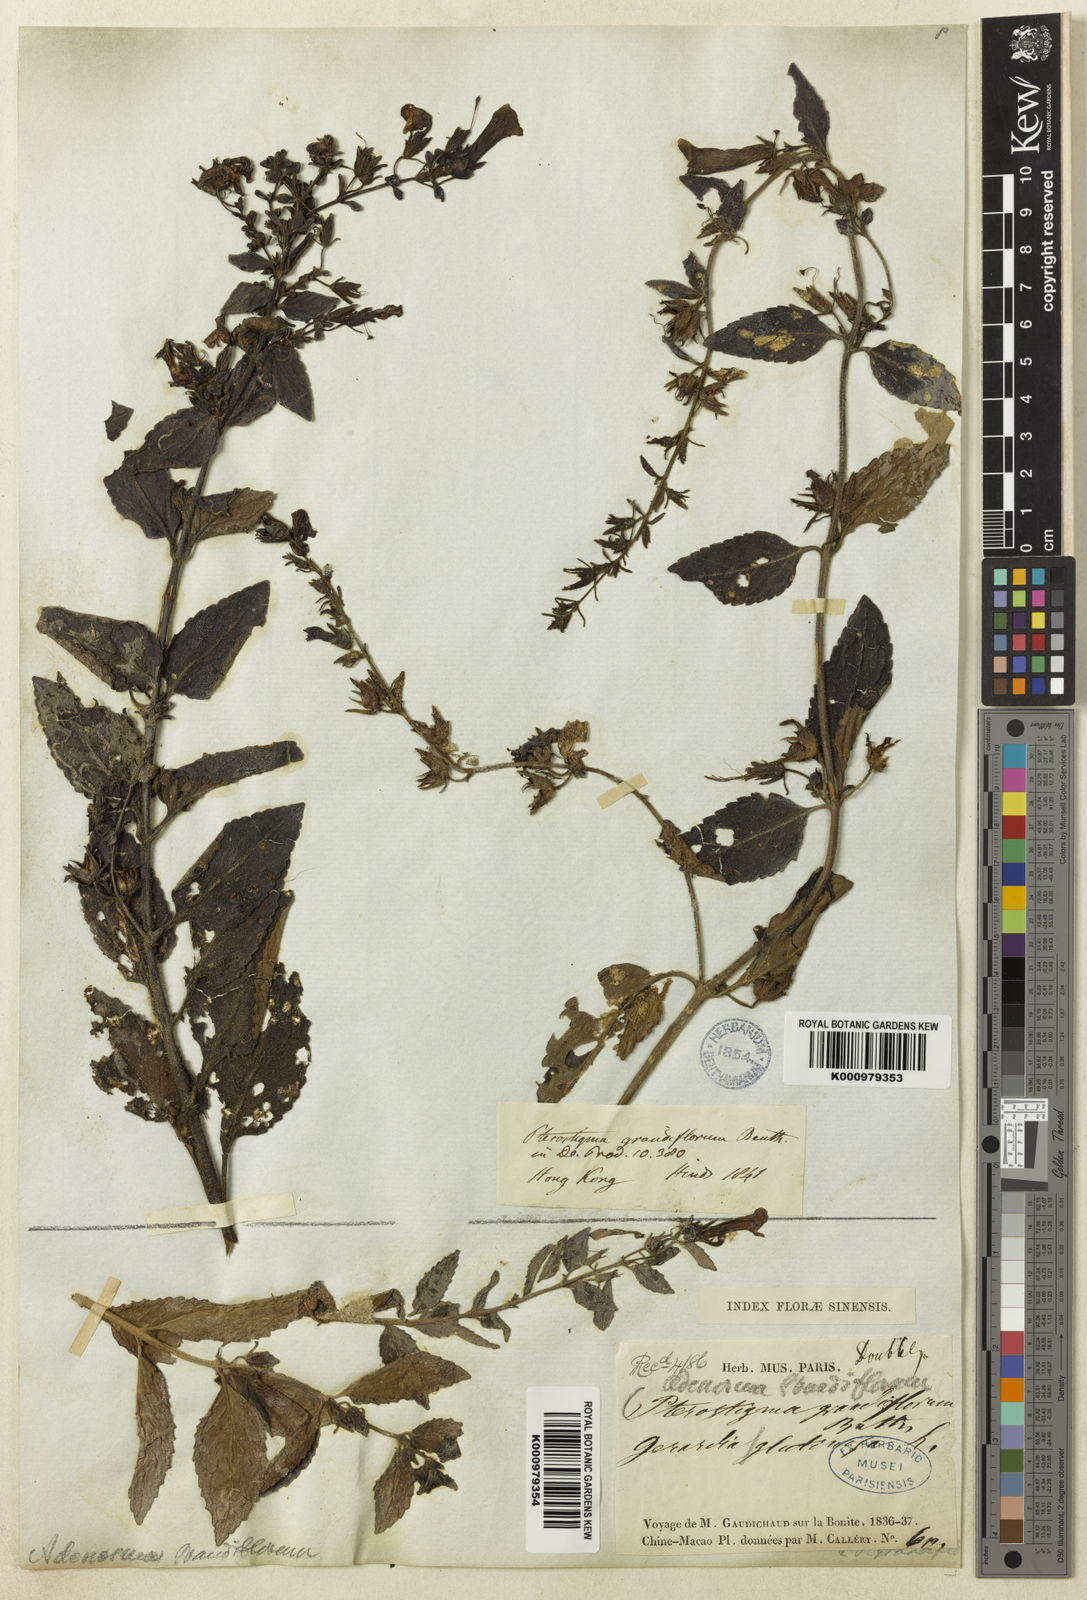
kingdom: Plantae
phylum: Tracheophyta
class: Magnoliopsida
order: Lamiales
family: Plantaginaceae
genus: Adenosma
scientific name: Adenosma glutinosa
